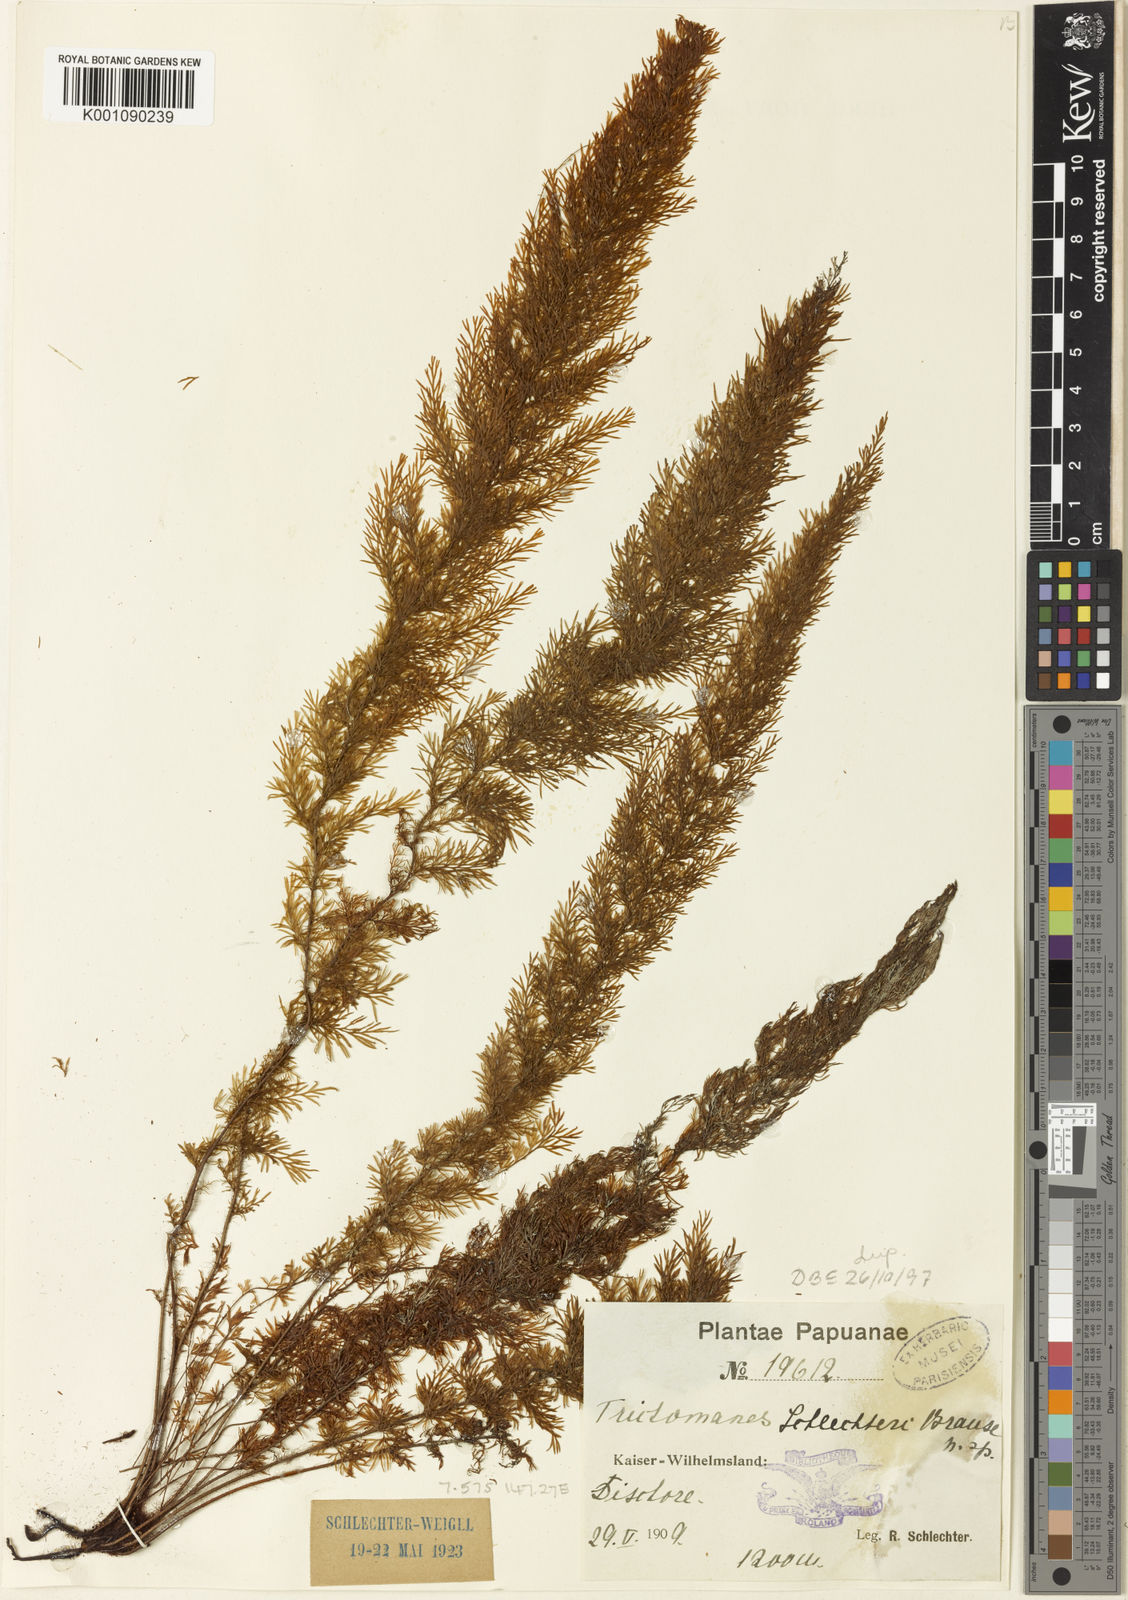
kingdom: Plantae
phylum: Tracheophyta
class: Polypodiopsida
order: Hymenophyllales
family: Hymenophyllaceae
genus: Abrodictyum
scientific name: Abrodictyum schlechteri
